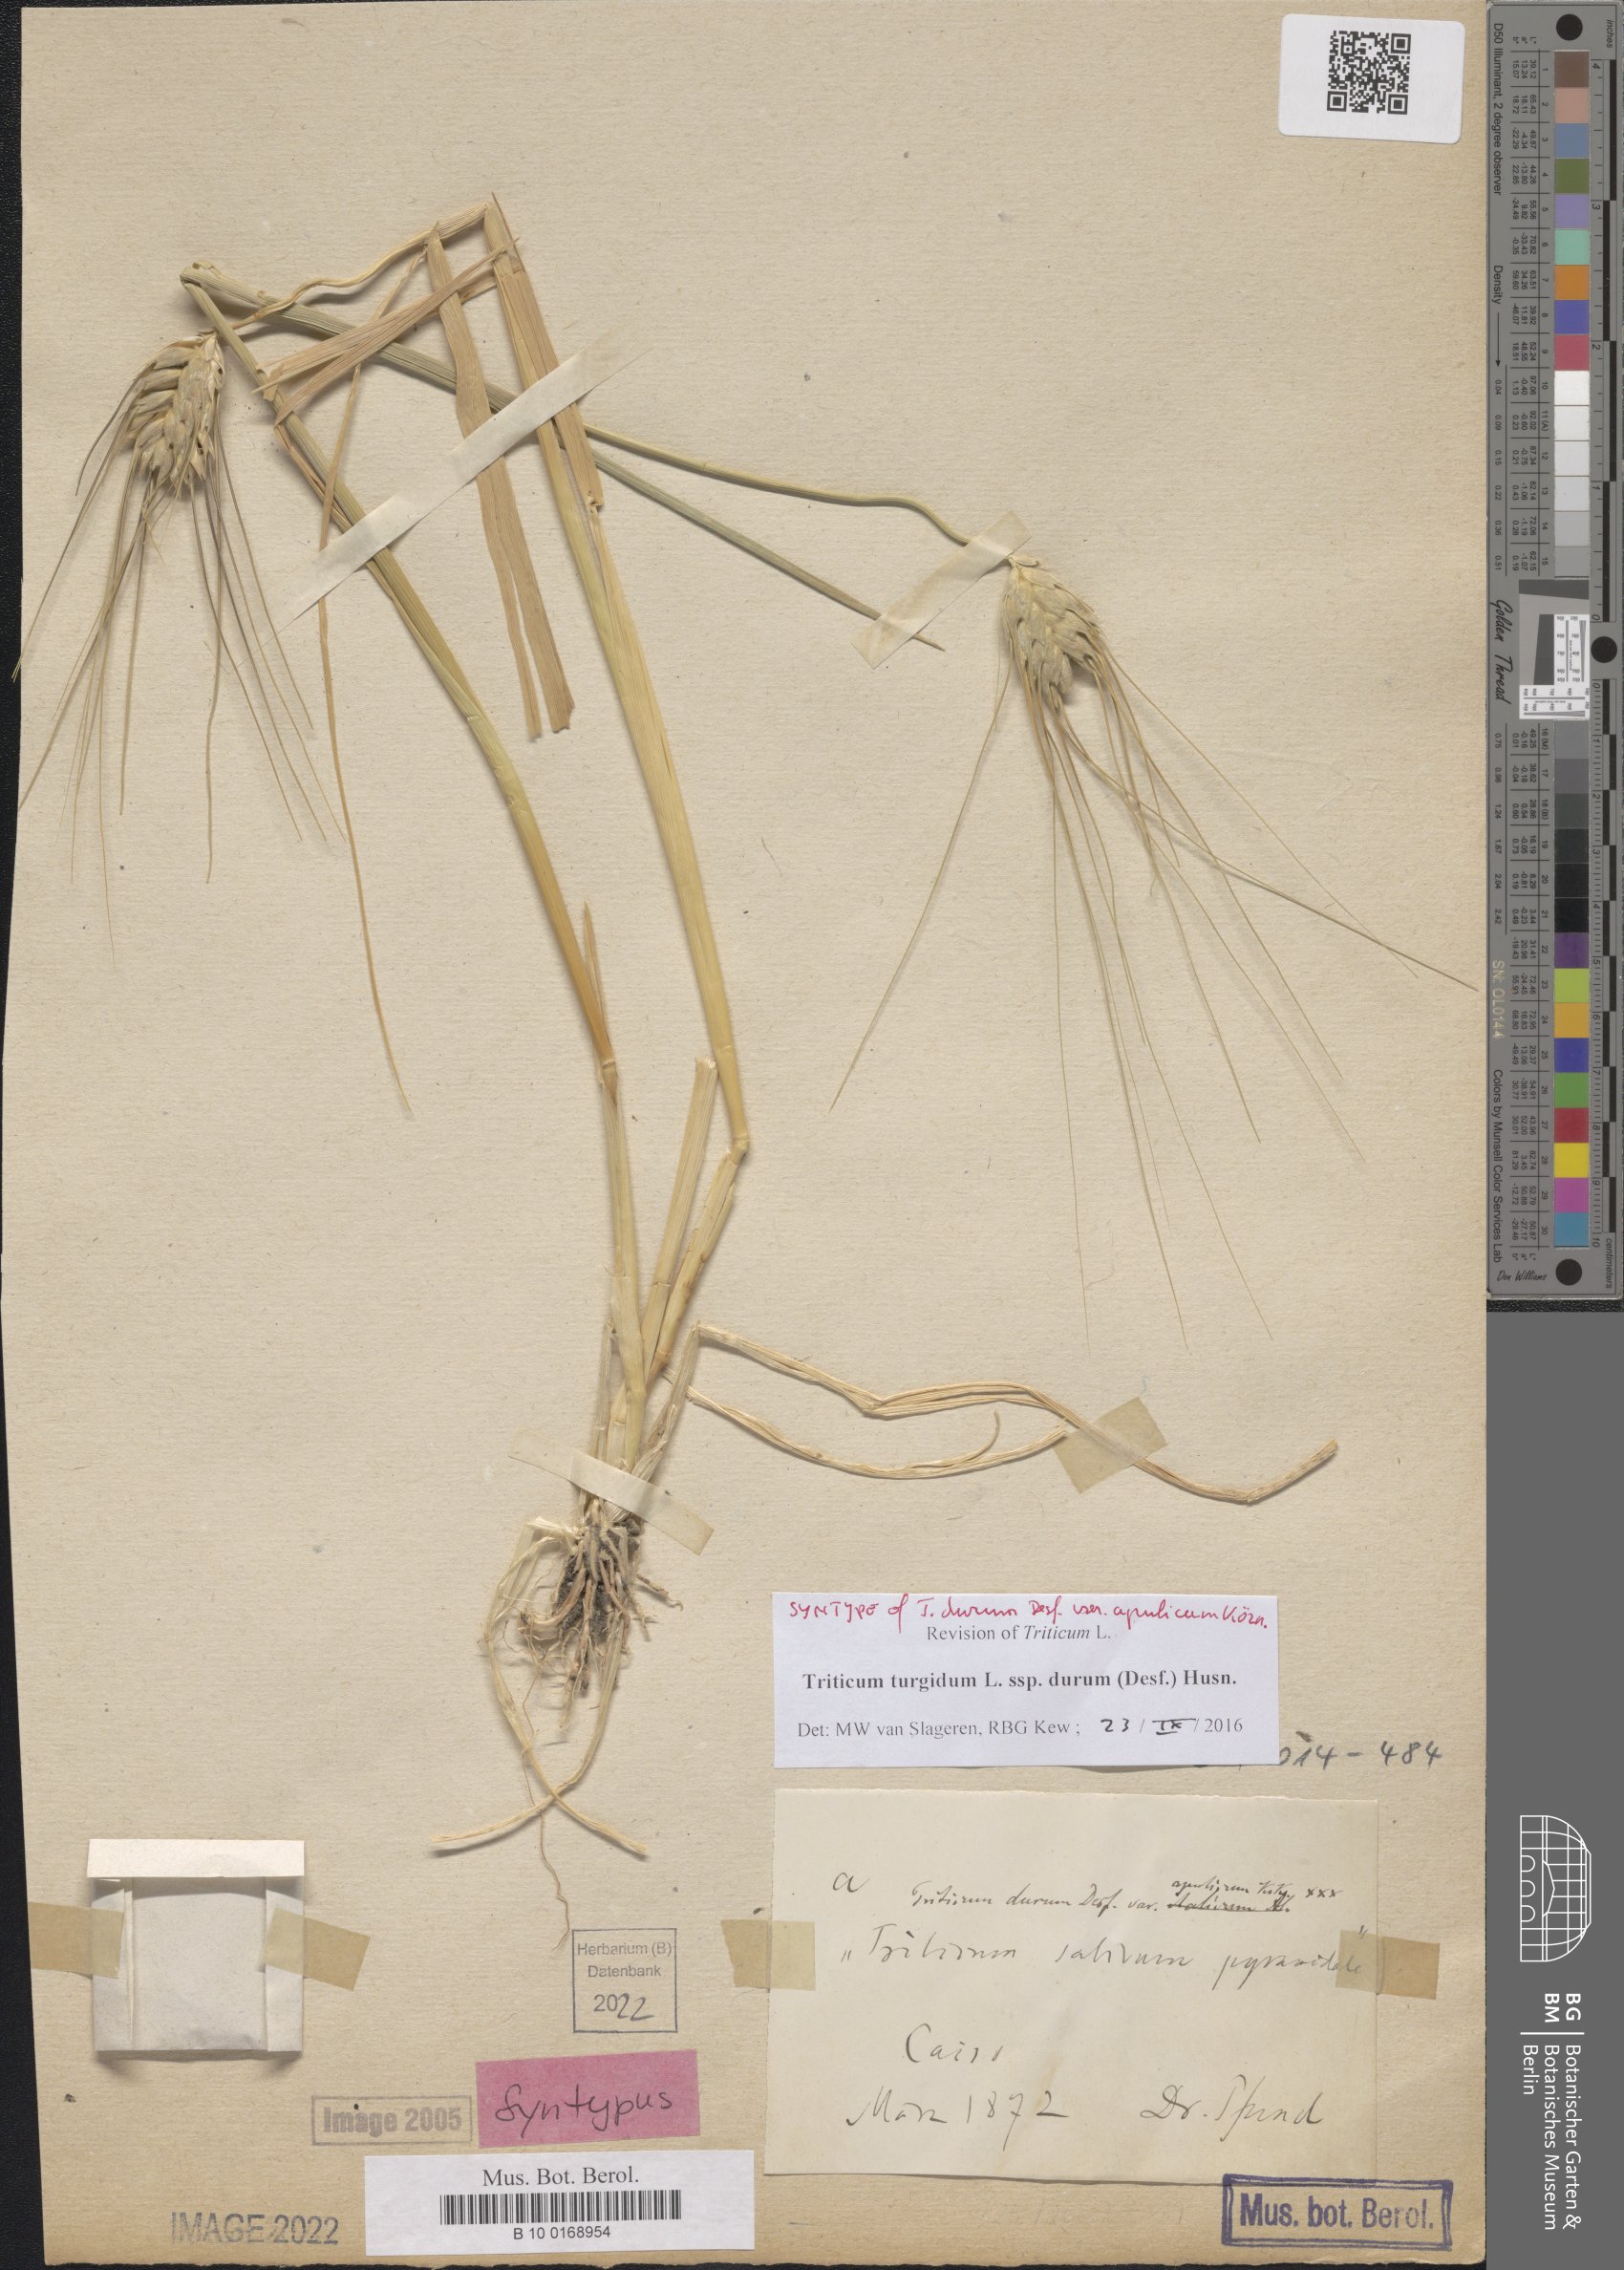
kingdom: Plantae
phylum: Tracheophyta
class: Liliopsida
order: Poales
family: Poaceae
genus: Triticum
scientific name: Triticum turgidum
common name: Rivet wheat
